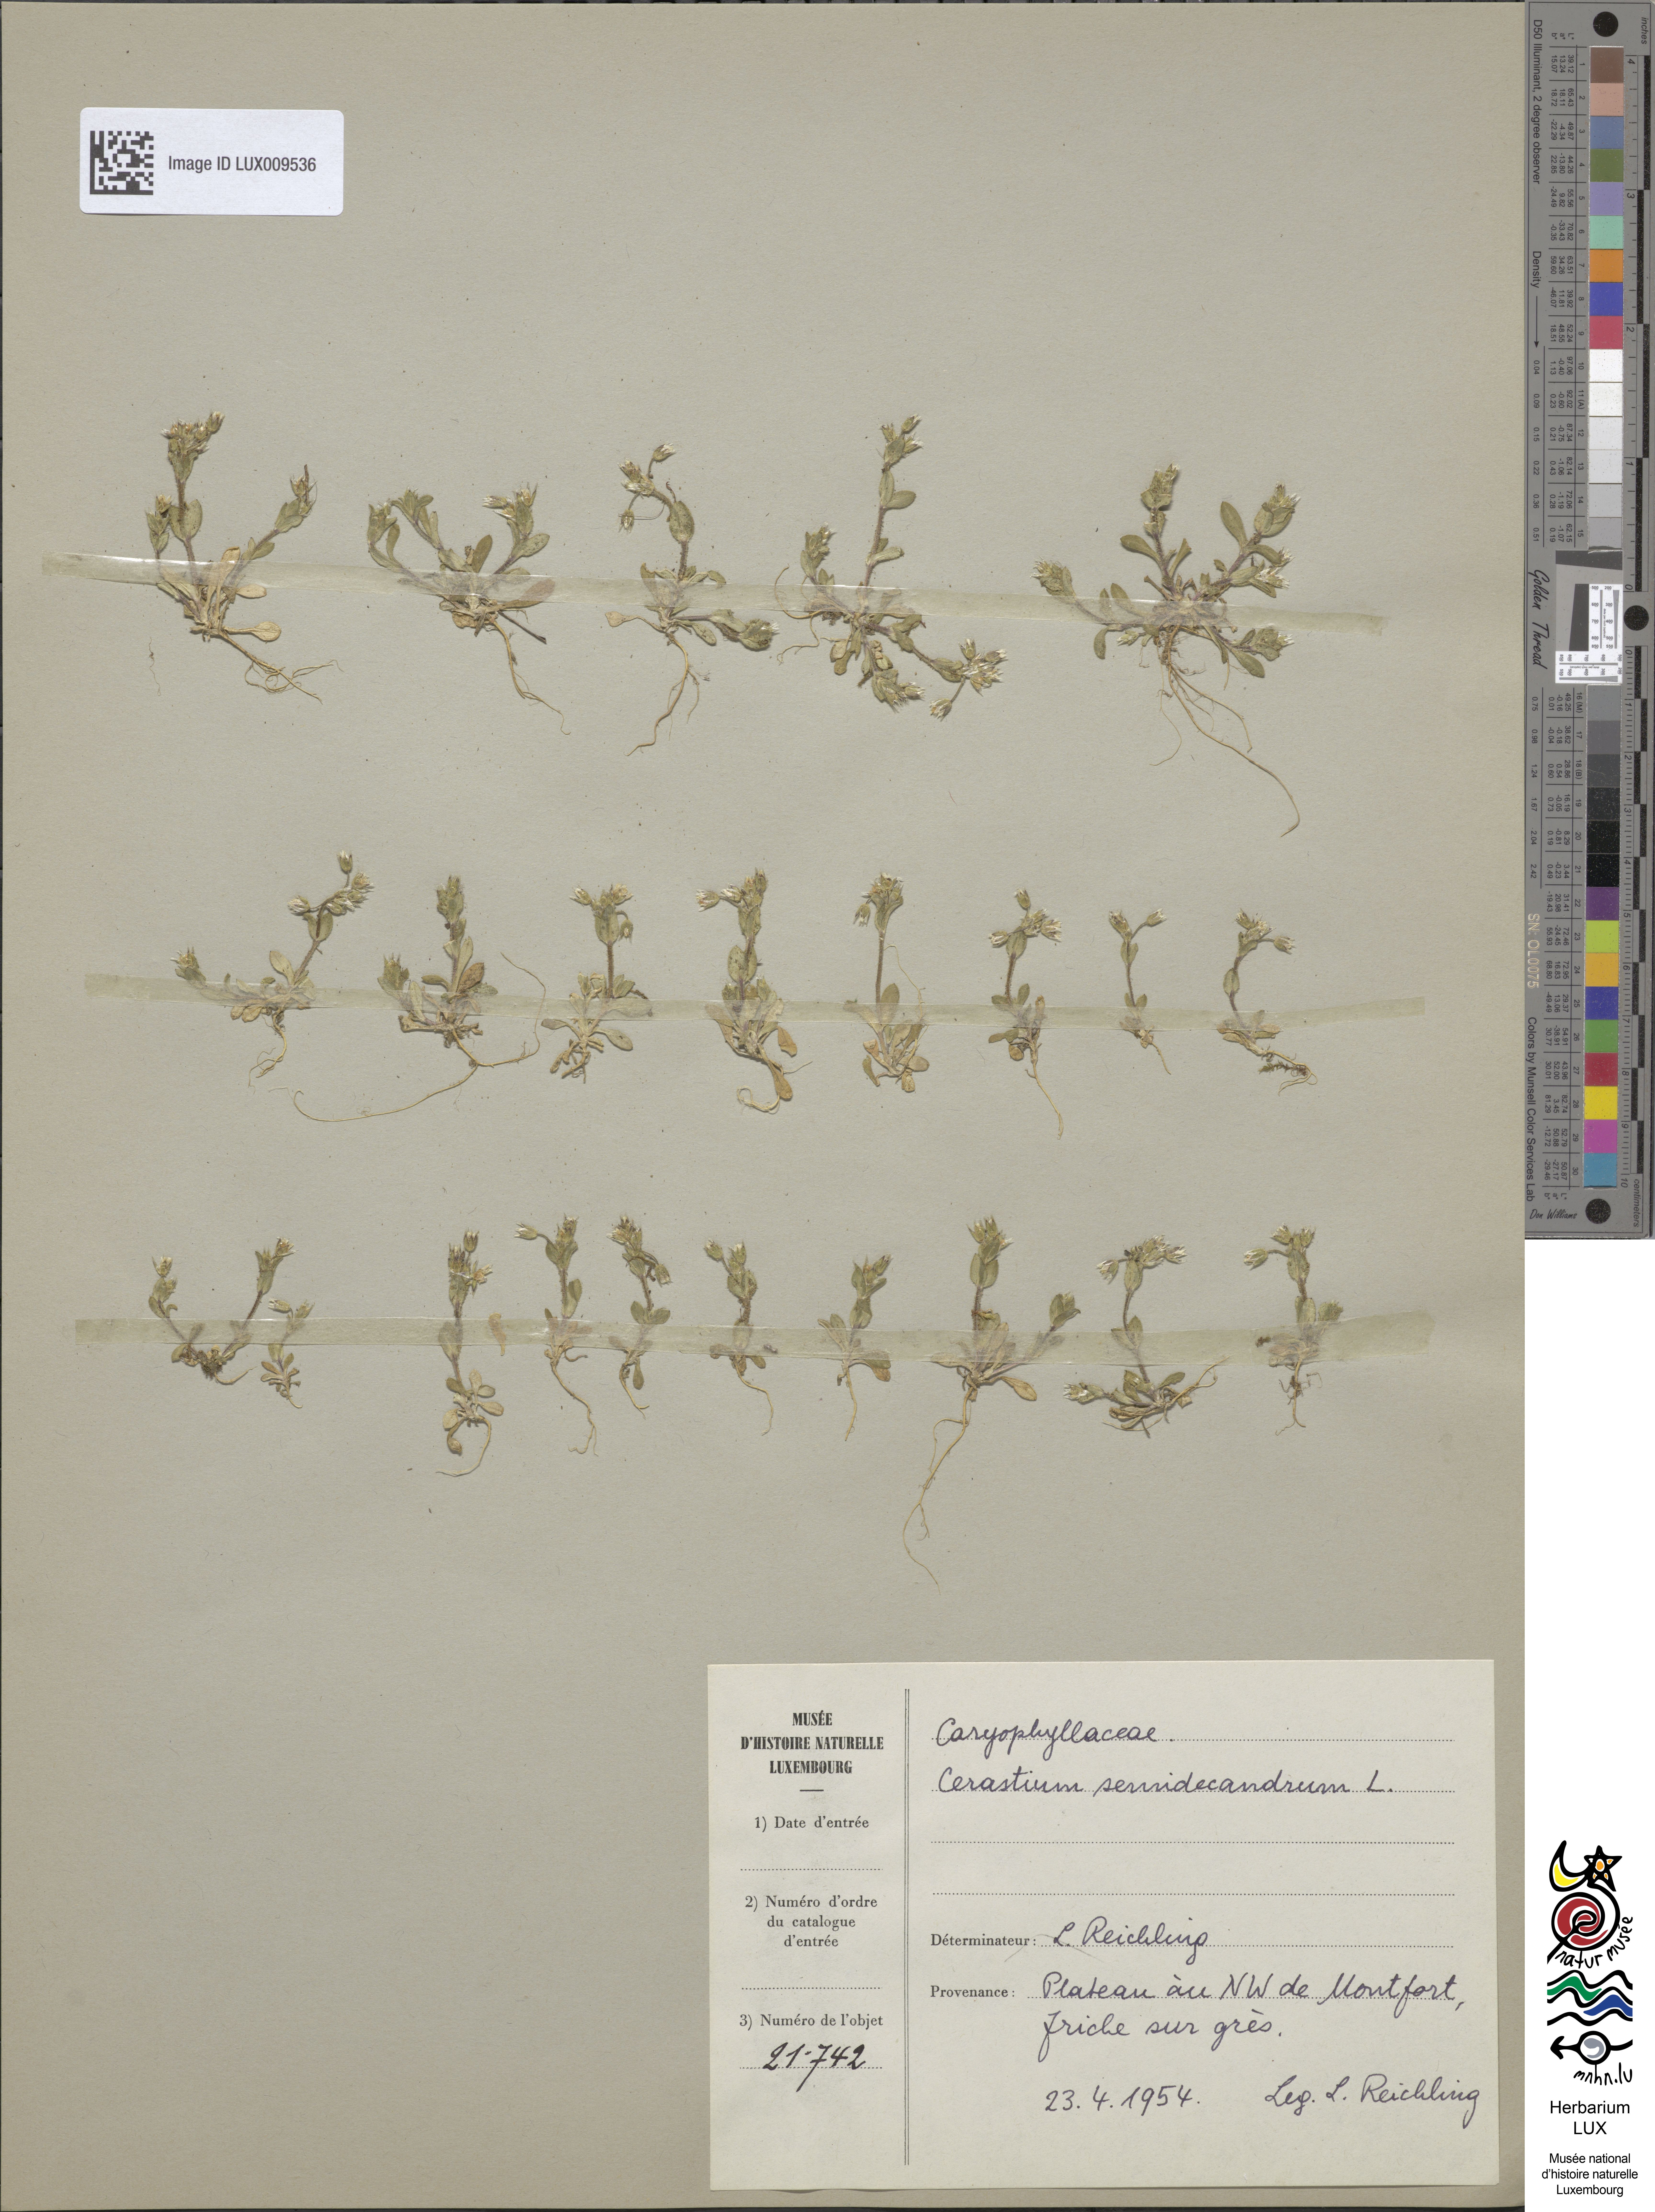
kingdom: Plantae
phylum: Tracheophyta
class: Magnoliopsida
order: Caryophyllales
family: Caryophyllaceae
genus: Cerastium
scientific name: Cerastium semidecandrum
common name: Little mouse-ear
